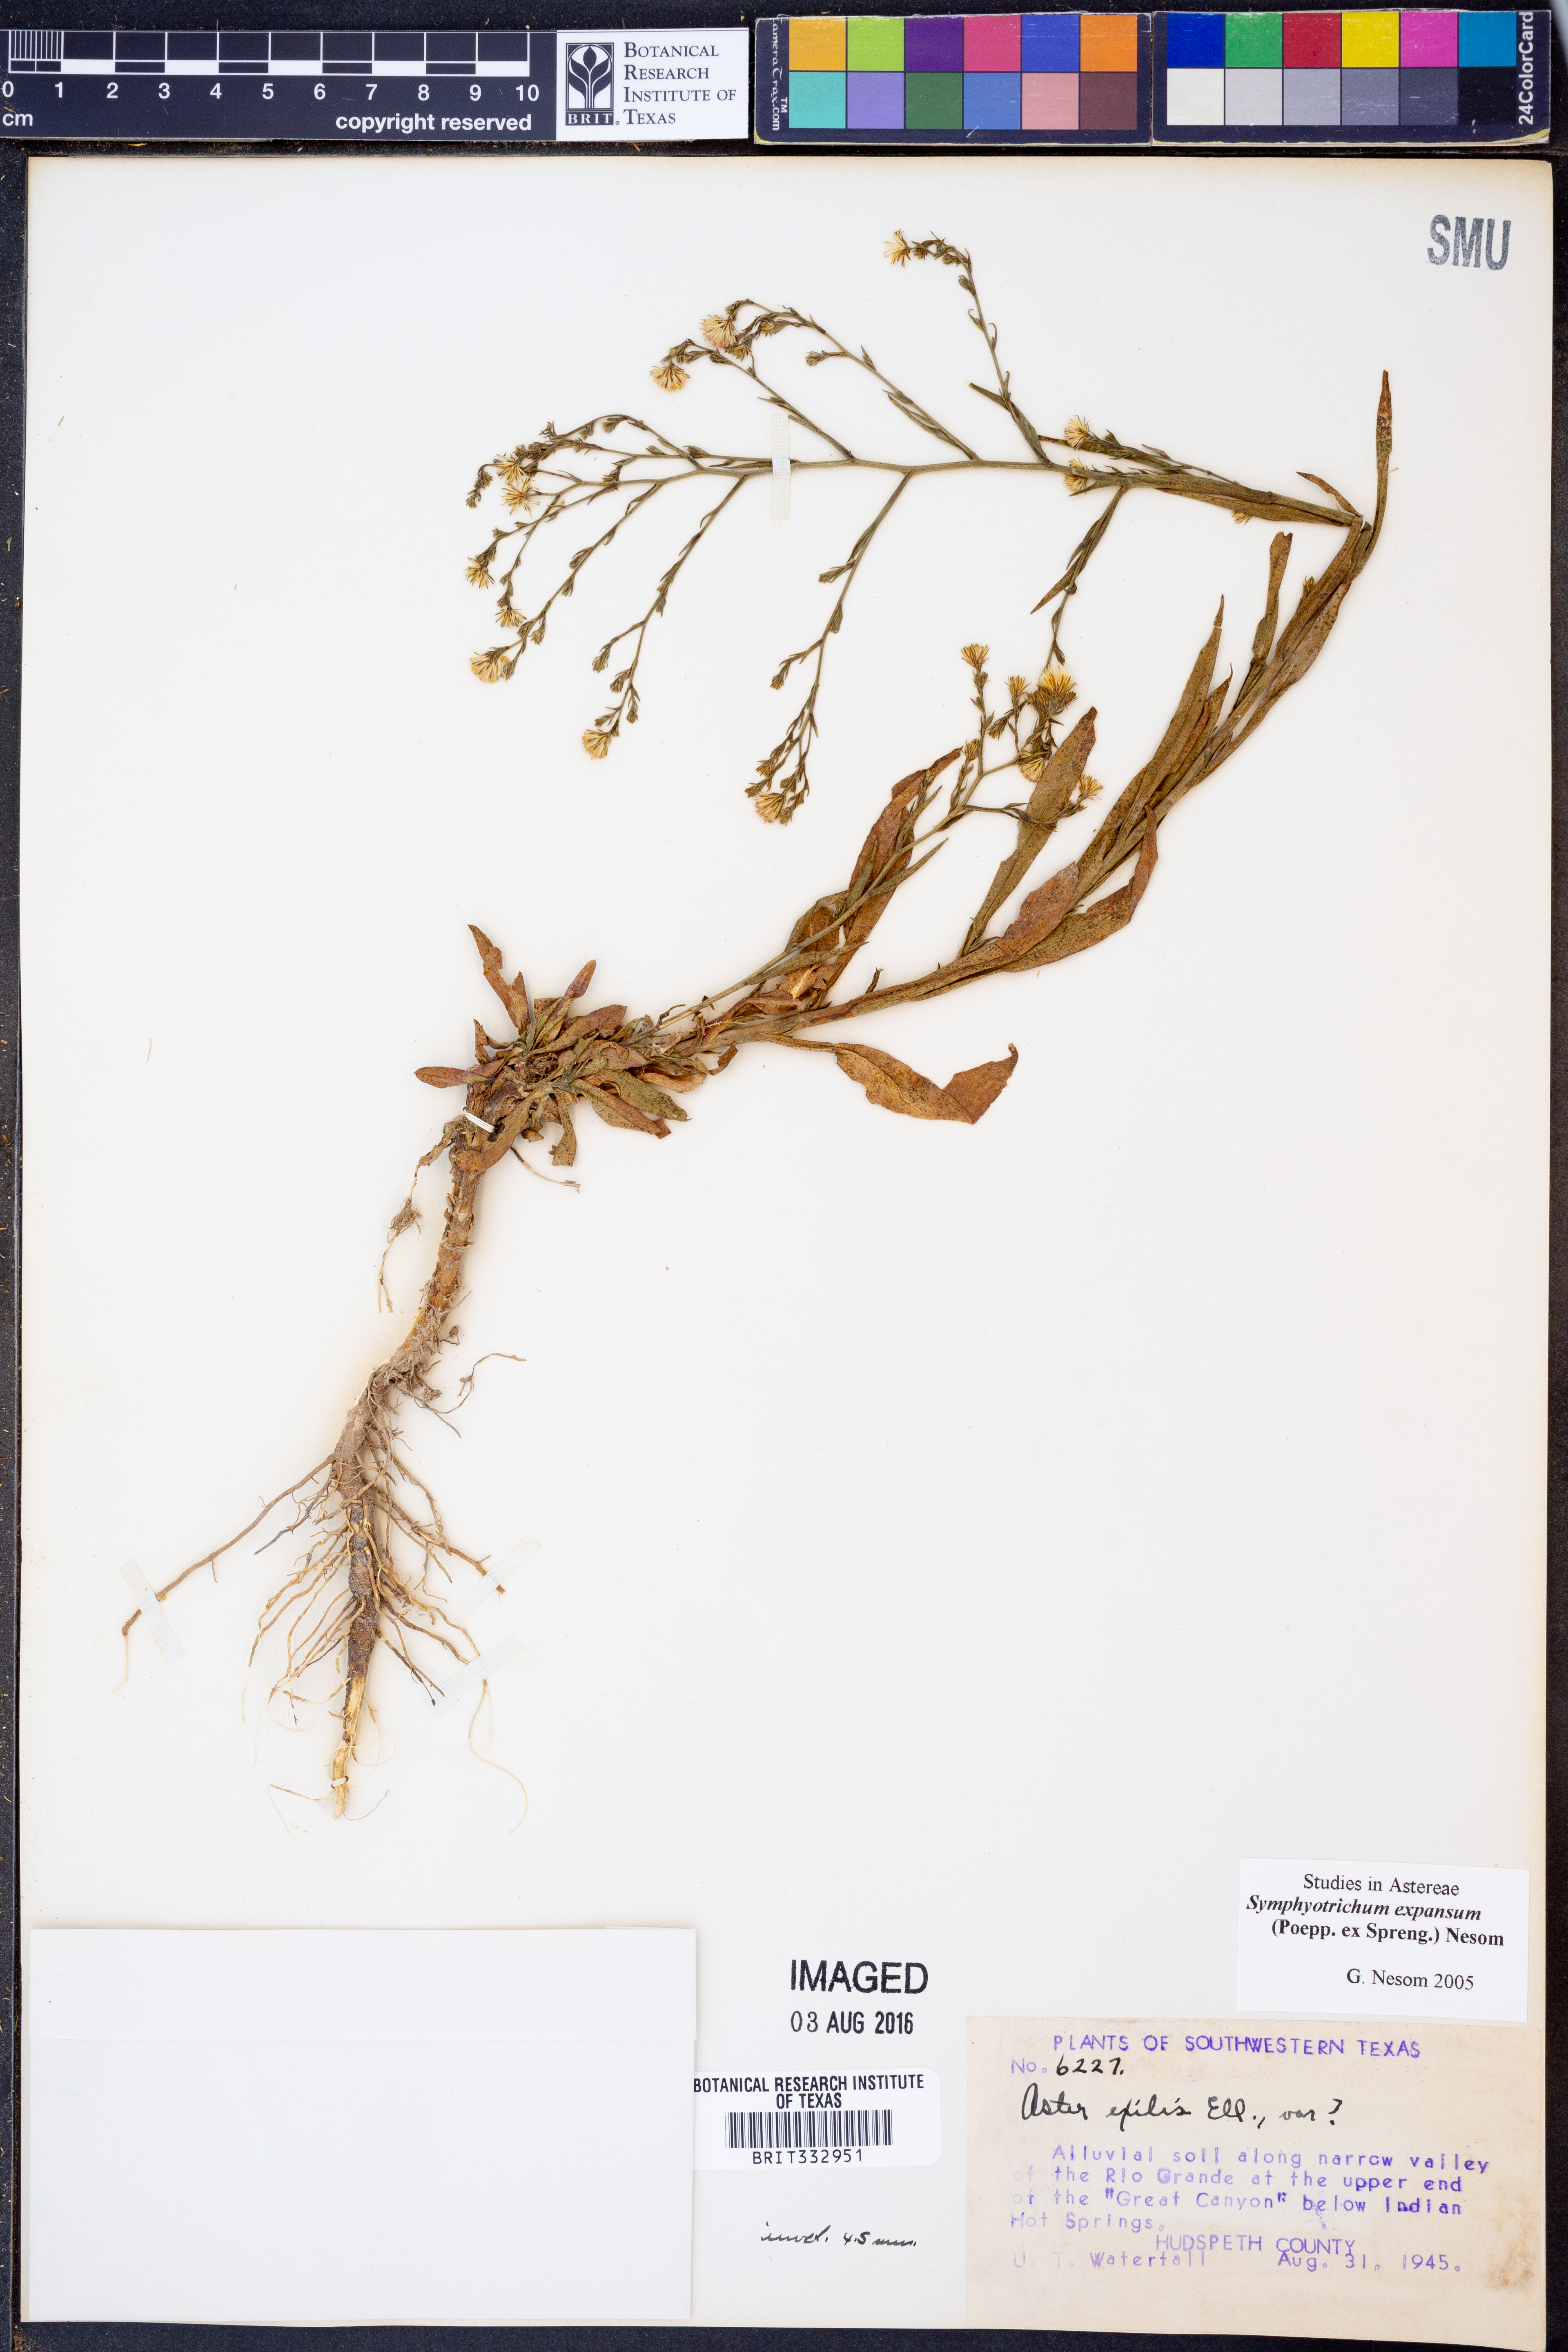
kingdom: Plantae
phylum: Tracheophyta
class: Magnoliopsida
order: Asterales
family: Asteraceae
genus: Symphyotrichum
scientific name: Symphyotrichum expansum
